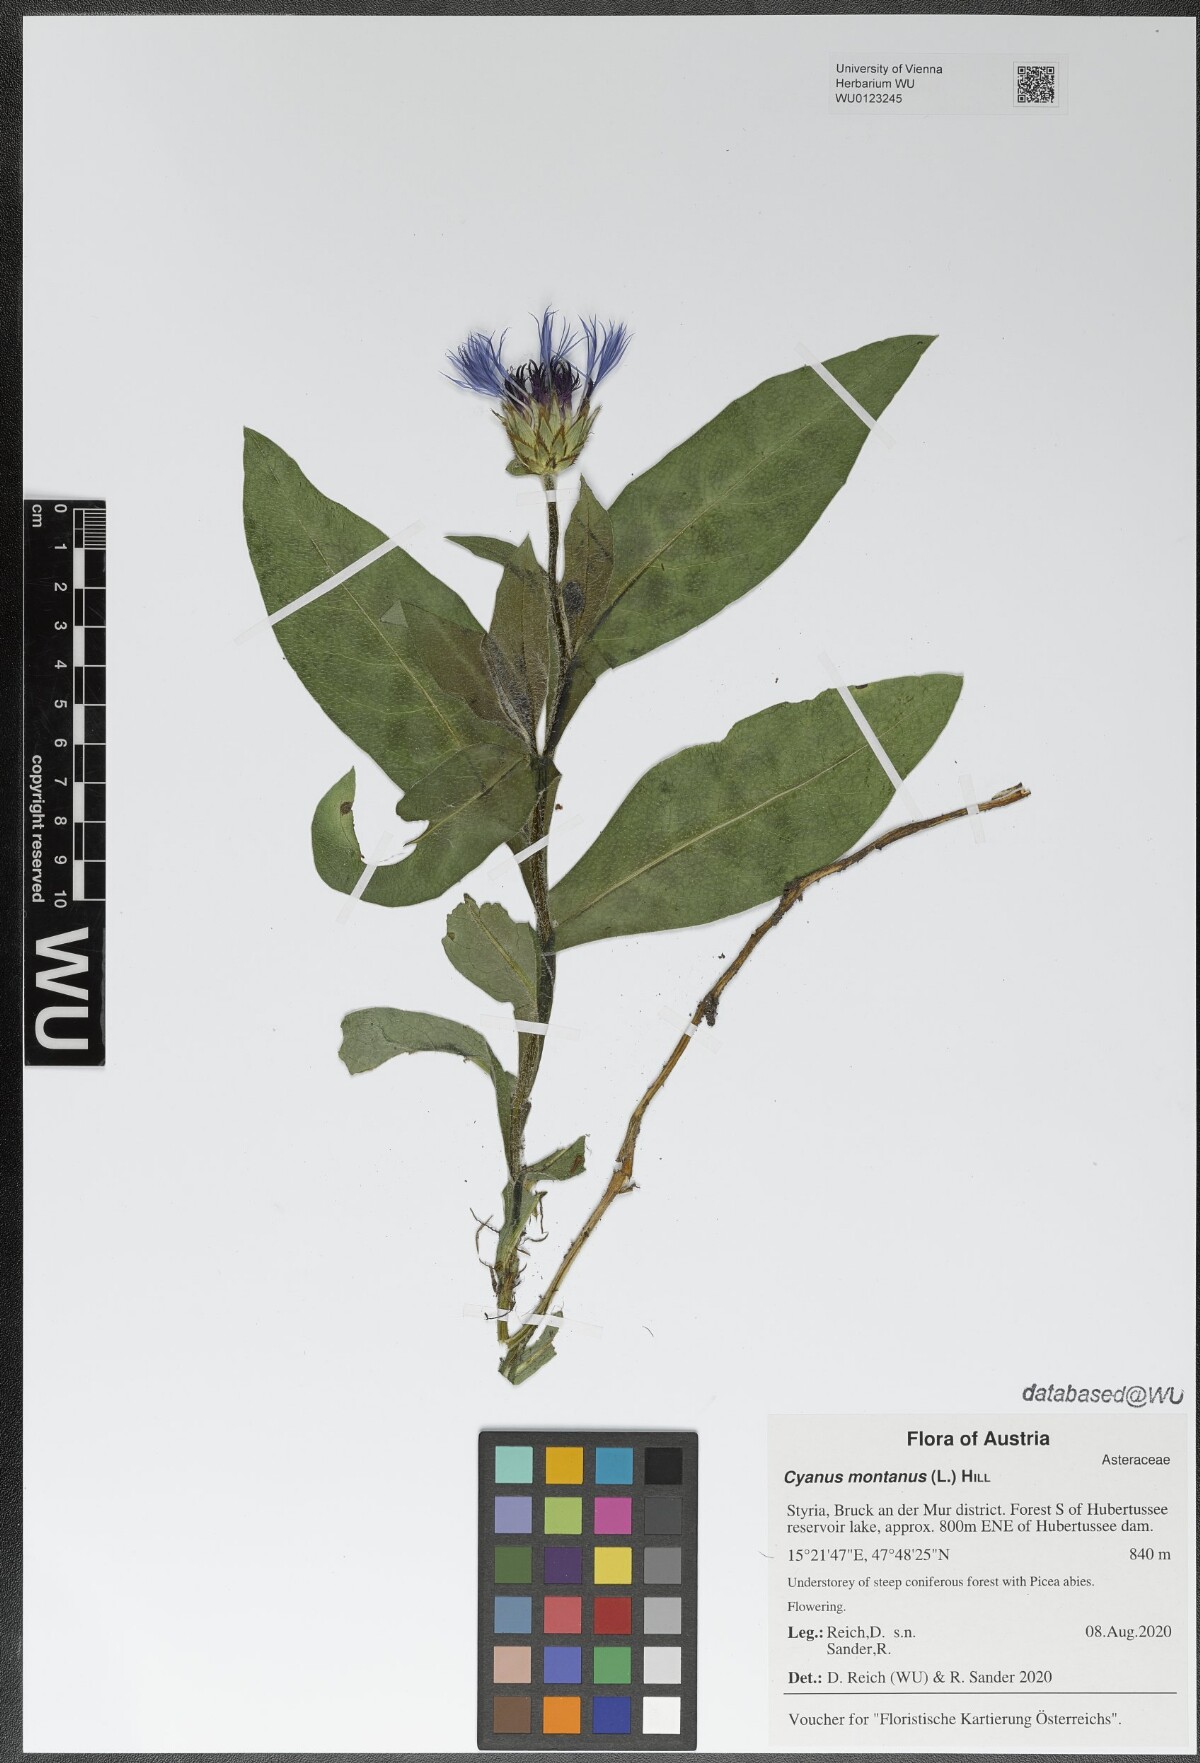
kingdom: Plantae
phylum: Tracheophyta
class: Magnoliopsida
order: Asterales
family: Asteraceae
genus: Centaurea
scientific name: Centaurea montana
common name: Perennial cornflower
